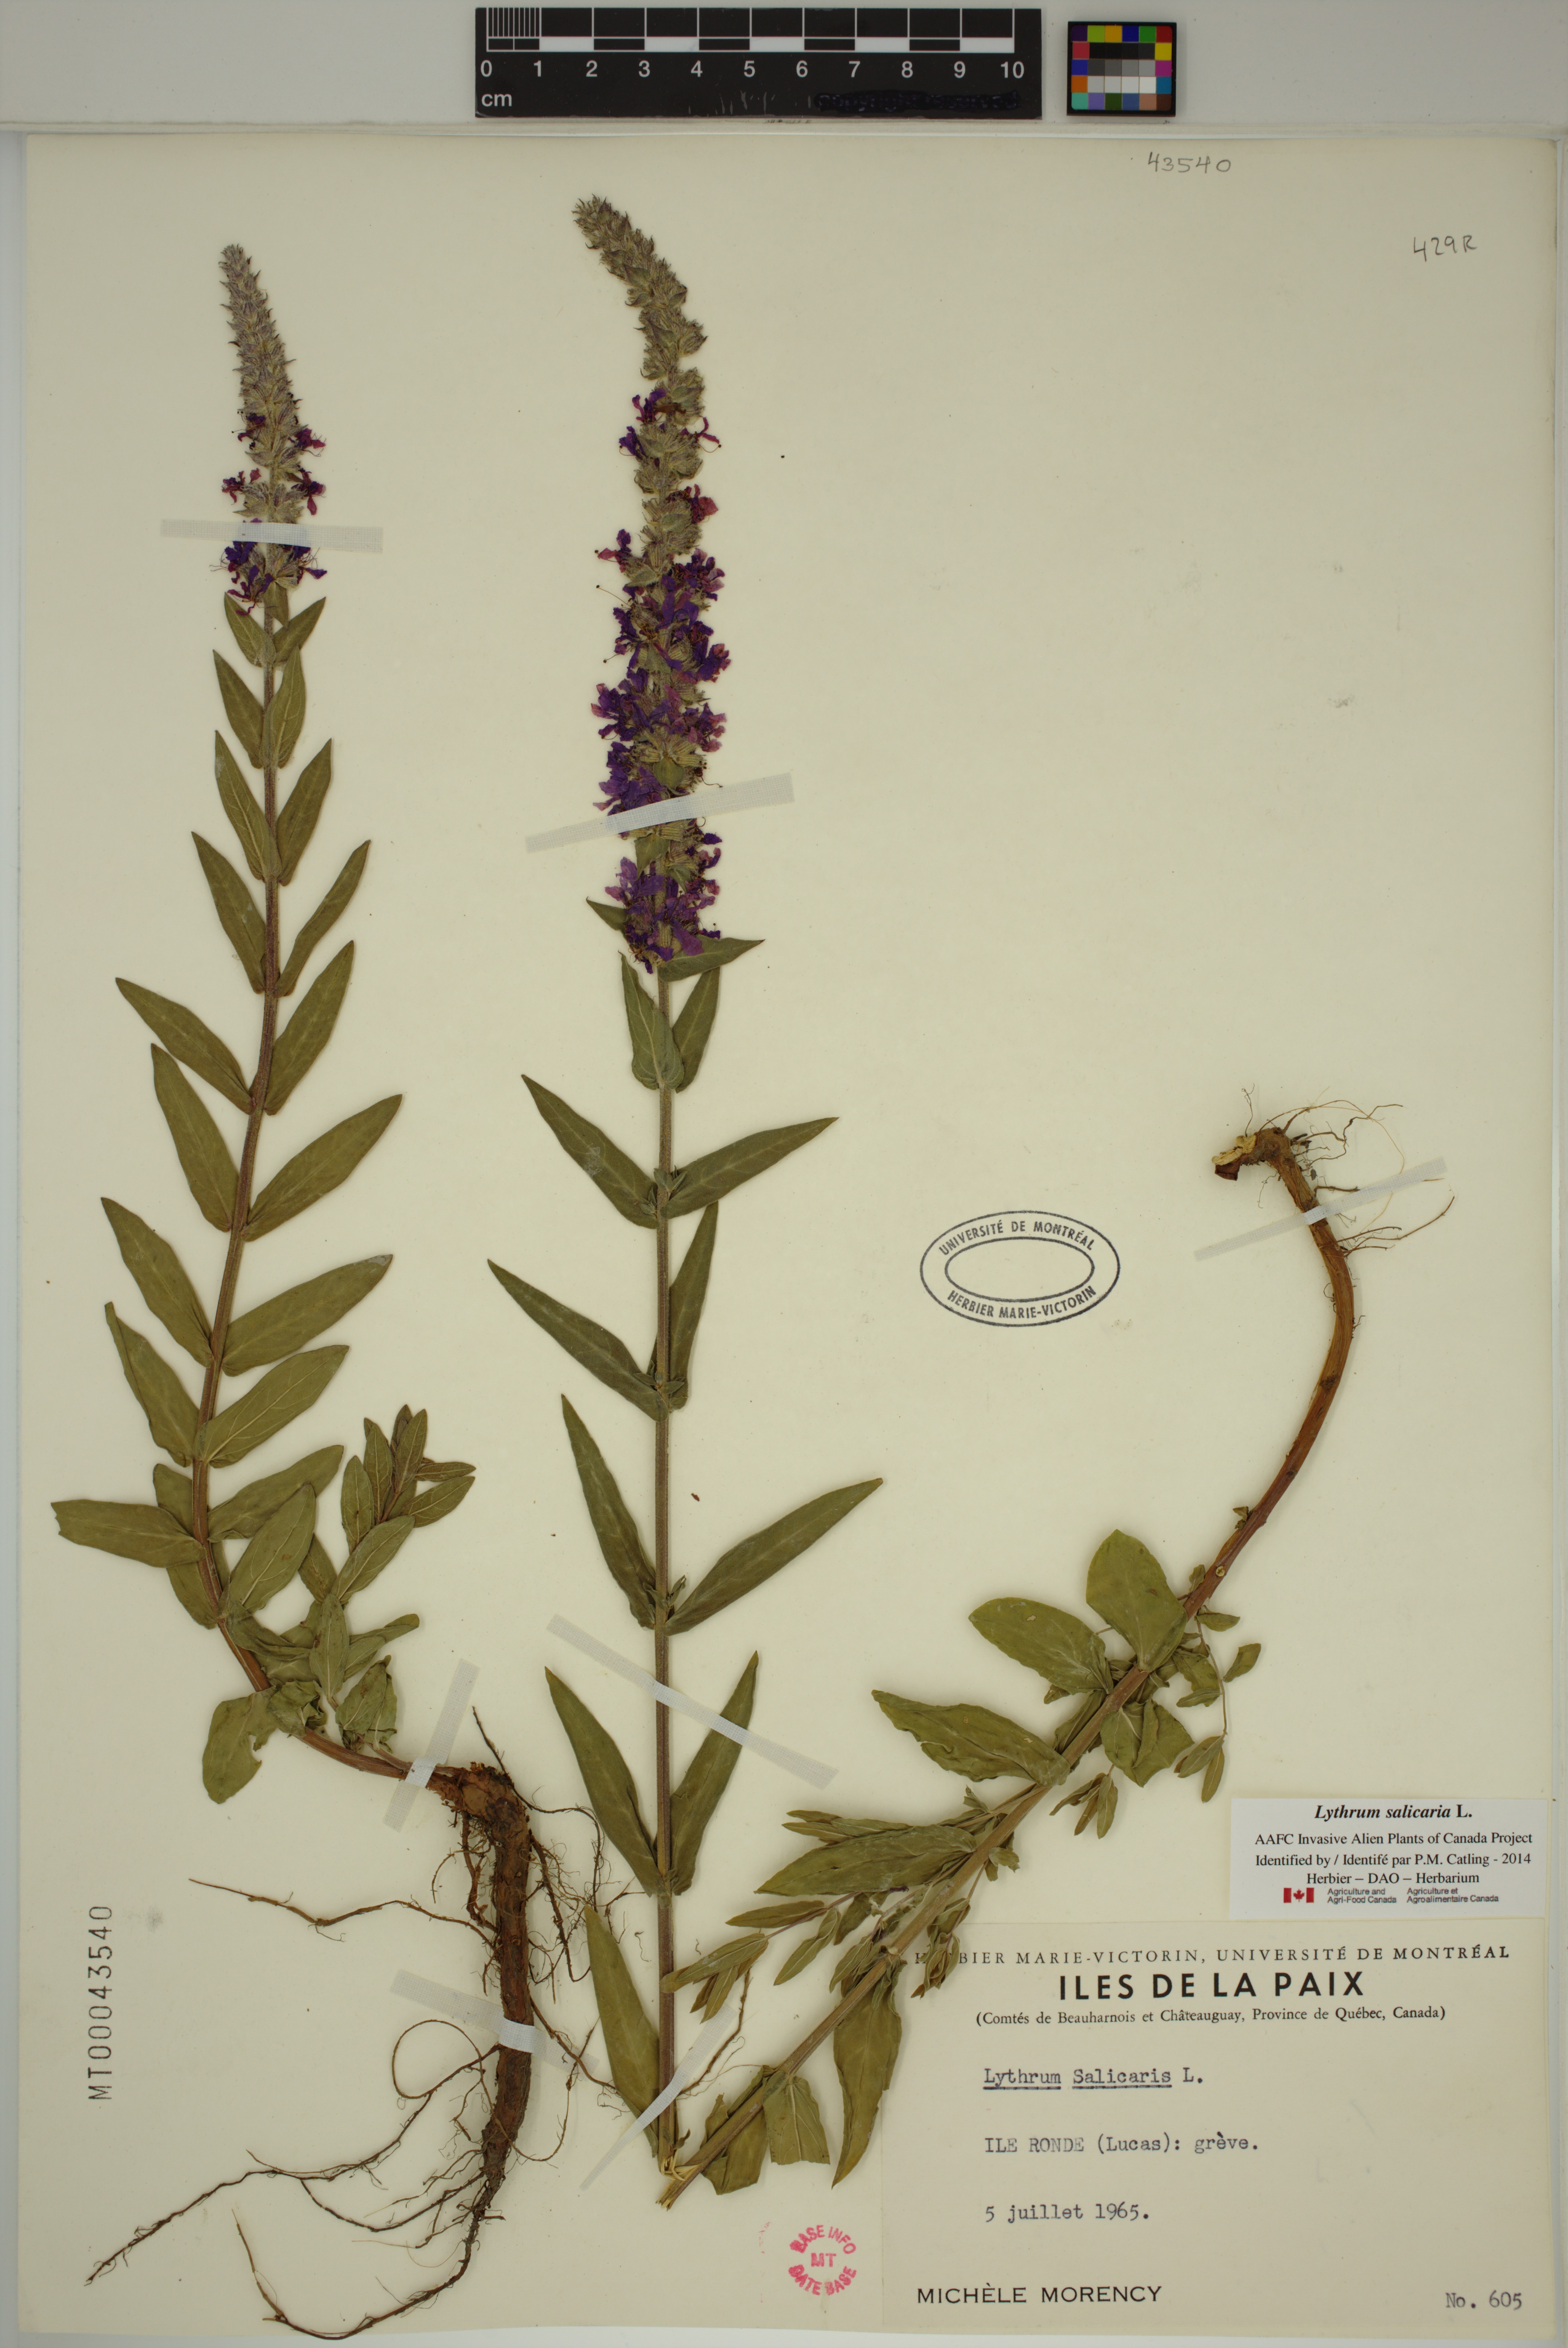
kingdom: Plantae
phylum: Tracheophyta
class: Magnoliopsida
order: Myrtales
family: Lythraceae
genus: Lythrum
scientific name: Lythrum salicaria
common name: Purple loosestrife
